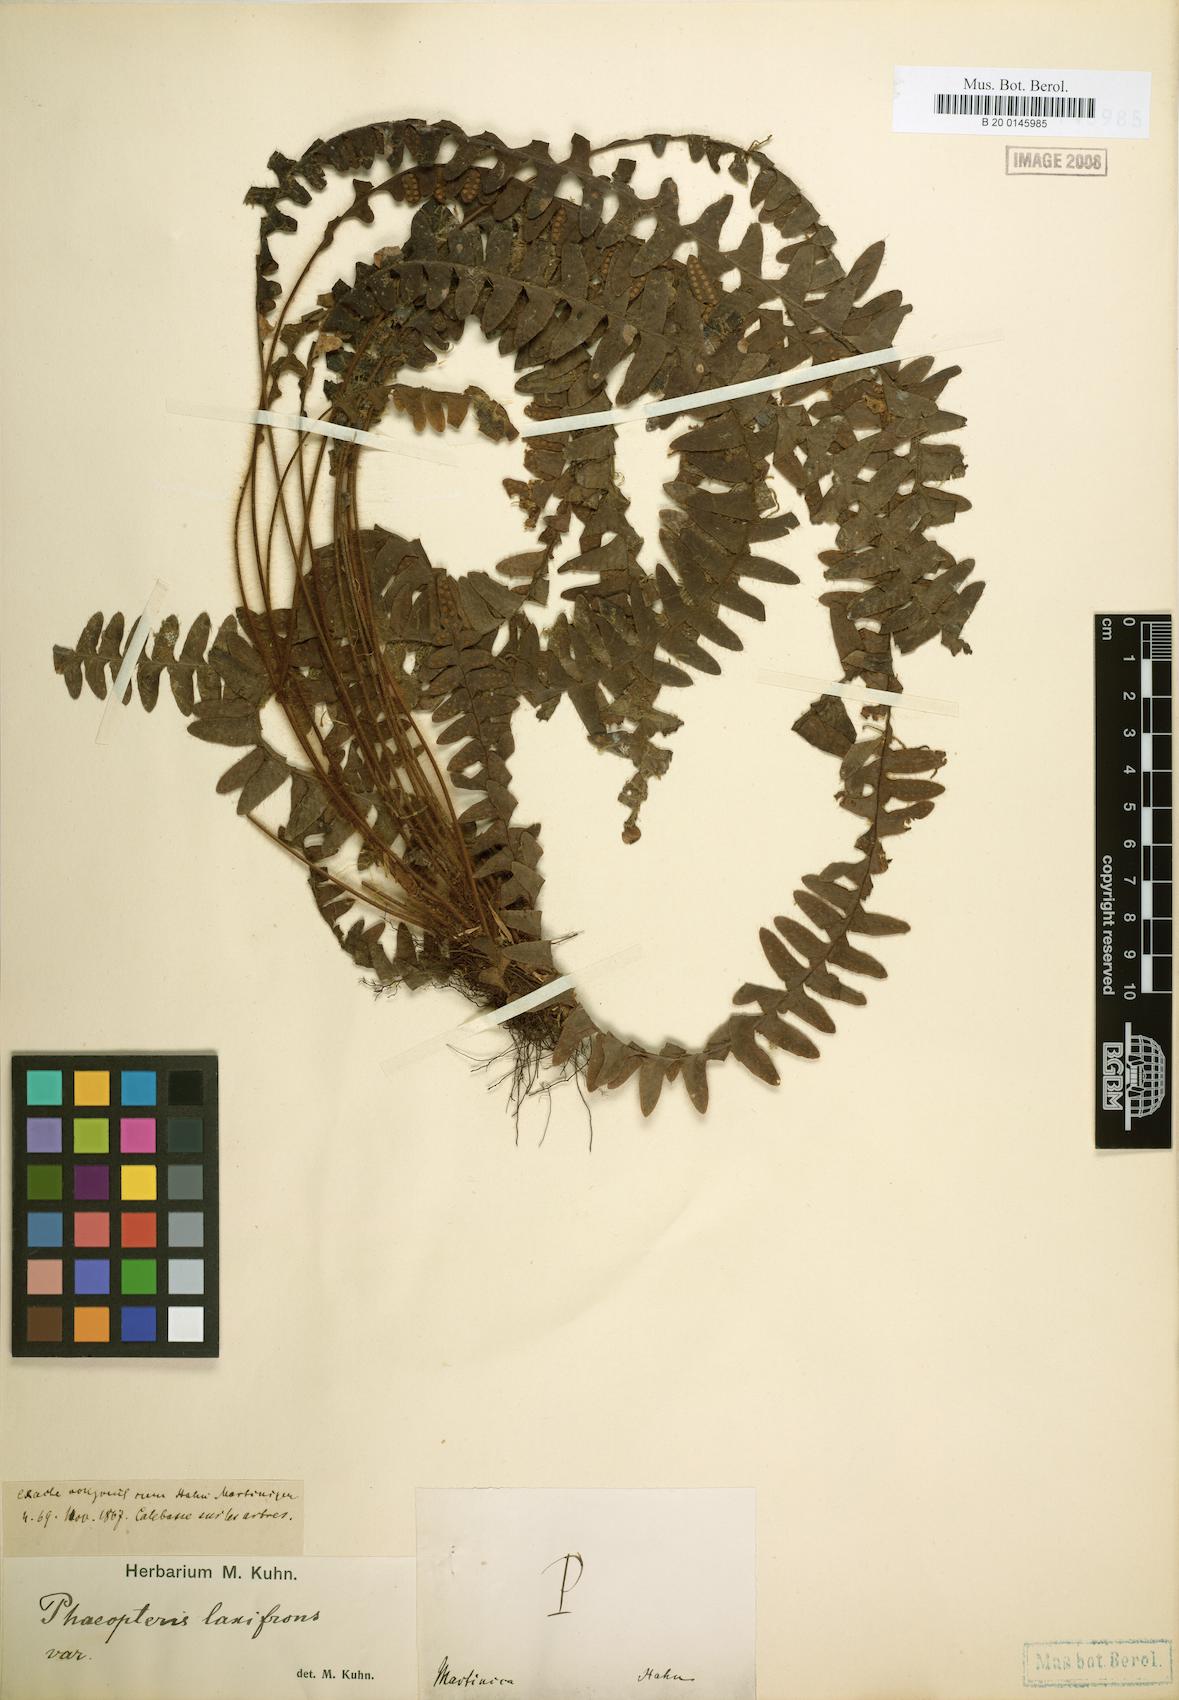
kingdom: Plantae
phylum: Tracheophyta
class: Polypodiopsida
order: Polypodiales
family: Polypodiaceae
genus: Terpsichore
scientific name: Terpsichore asplenifolia
